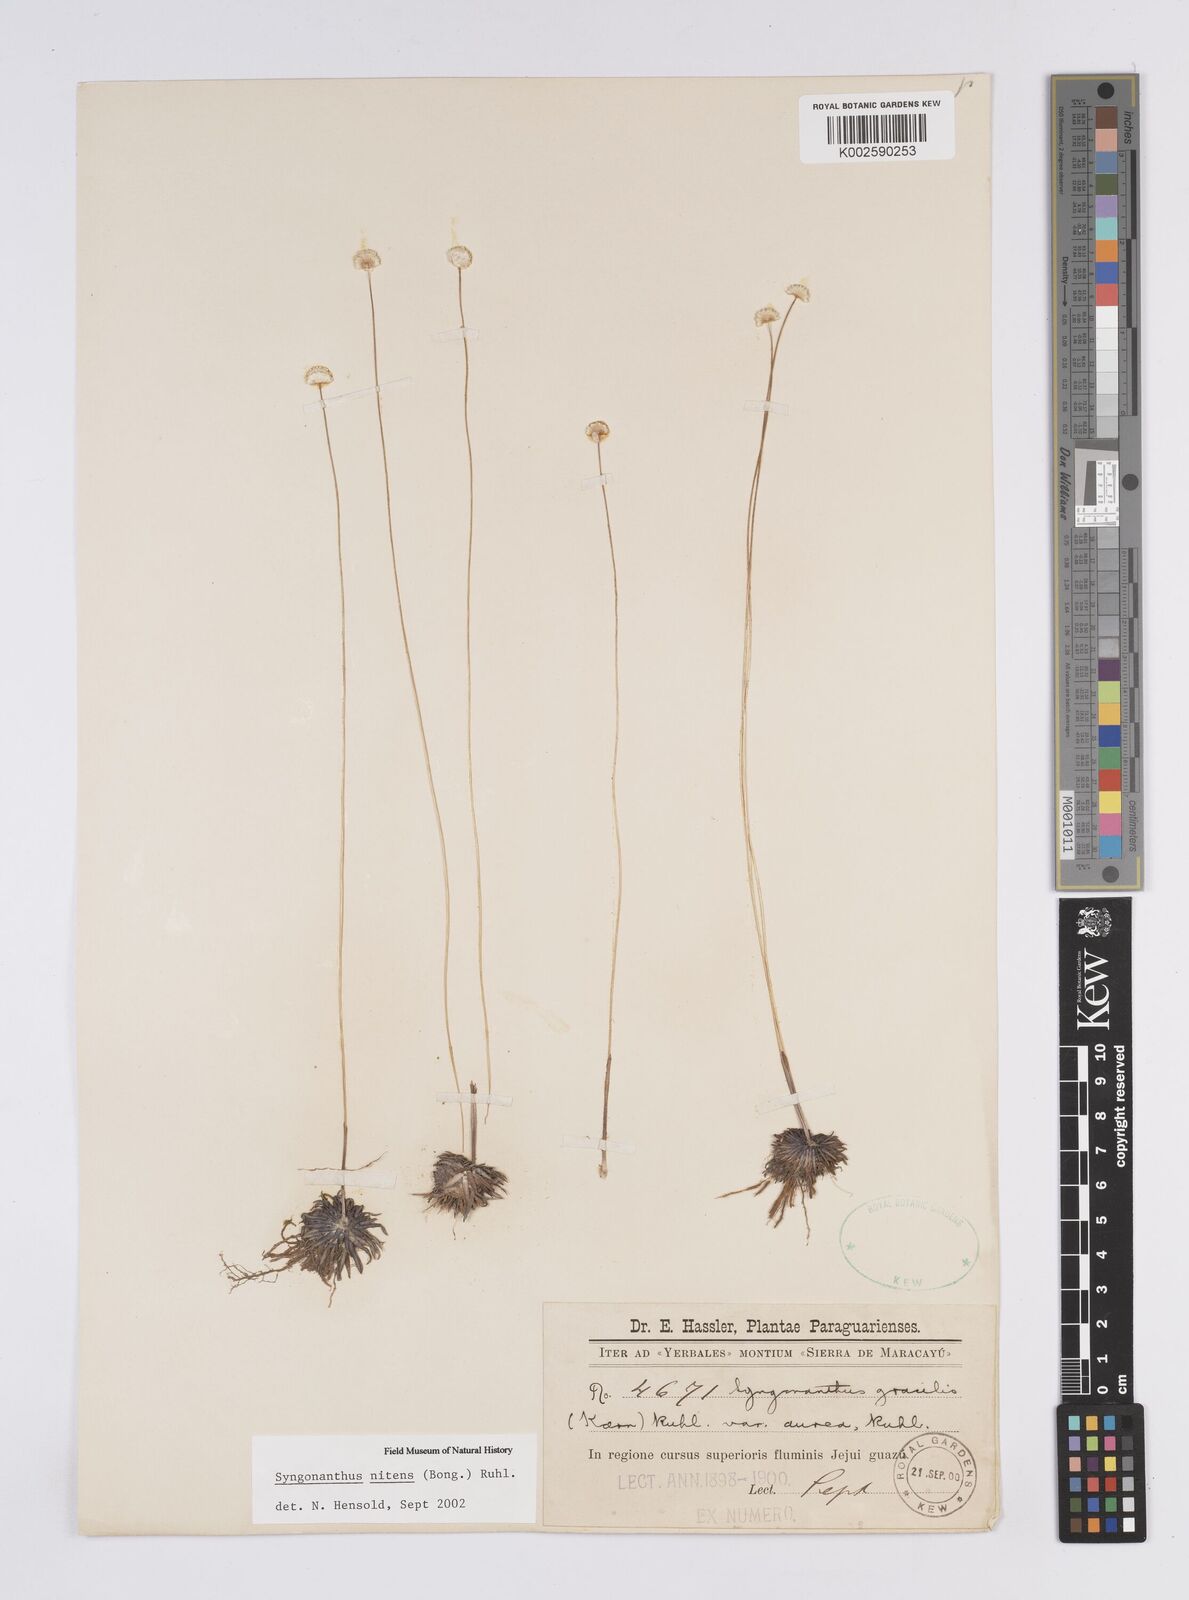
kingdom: Plantae
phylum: Tracheophyta
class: Liliopsida
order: Poales
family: Eriocaulaceae
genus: Syngonanthus
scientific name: Syngonanthus nitens
